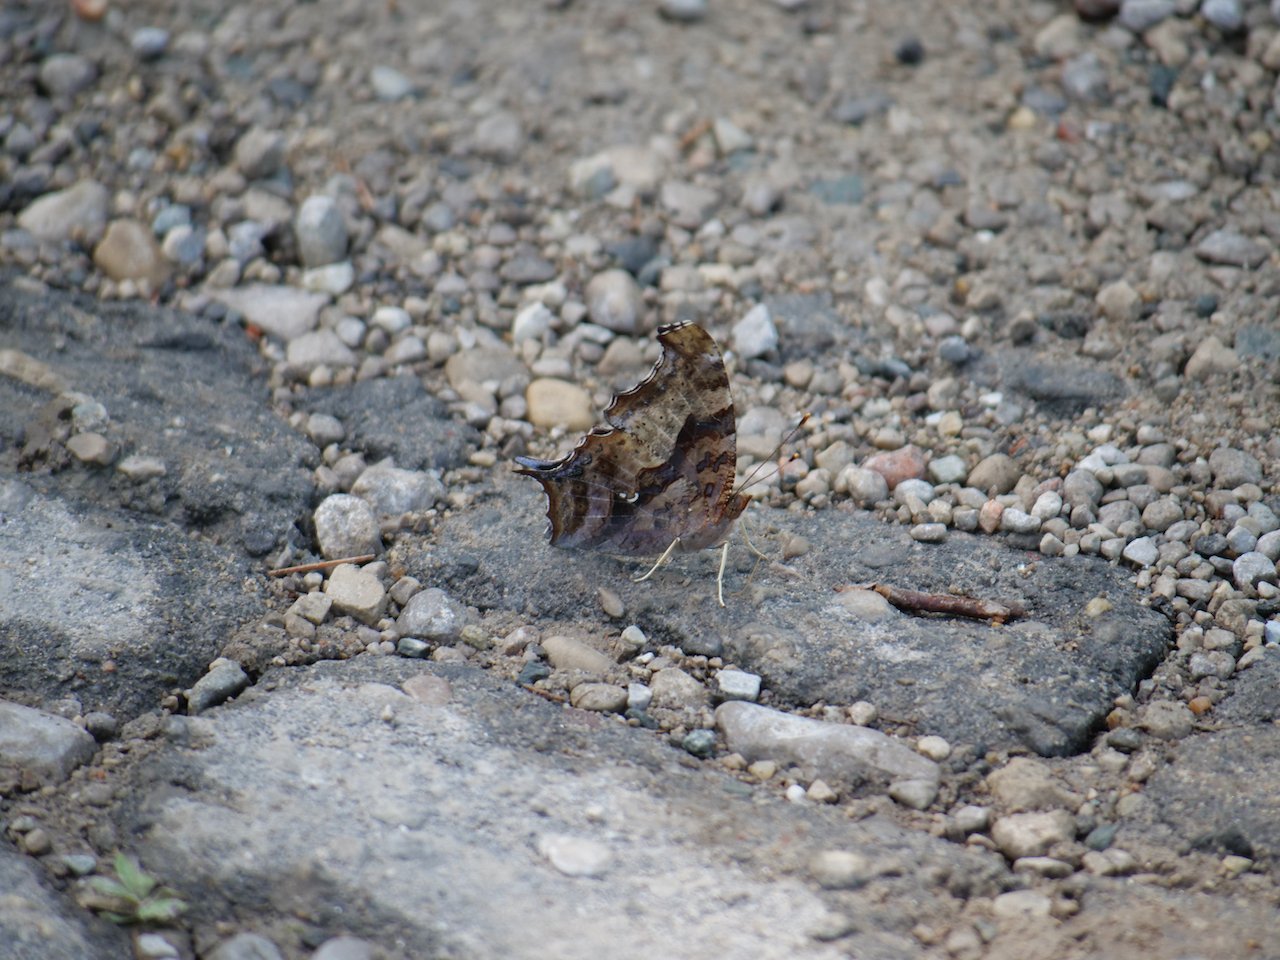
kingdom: Animalia
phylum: Arthropoda
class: Insecta
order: Lepidoptera
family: Nymphalidae
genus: Polygonia
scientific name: Polygonia interrogationis
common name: Question Mark
